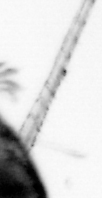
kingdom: Animalia
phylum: Arthropoda
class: Copepoda
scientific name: Copepoda
